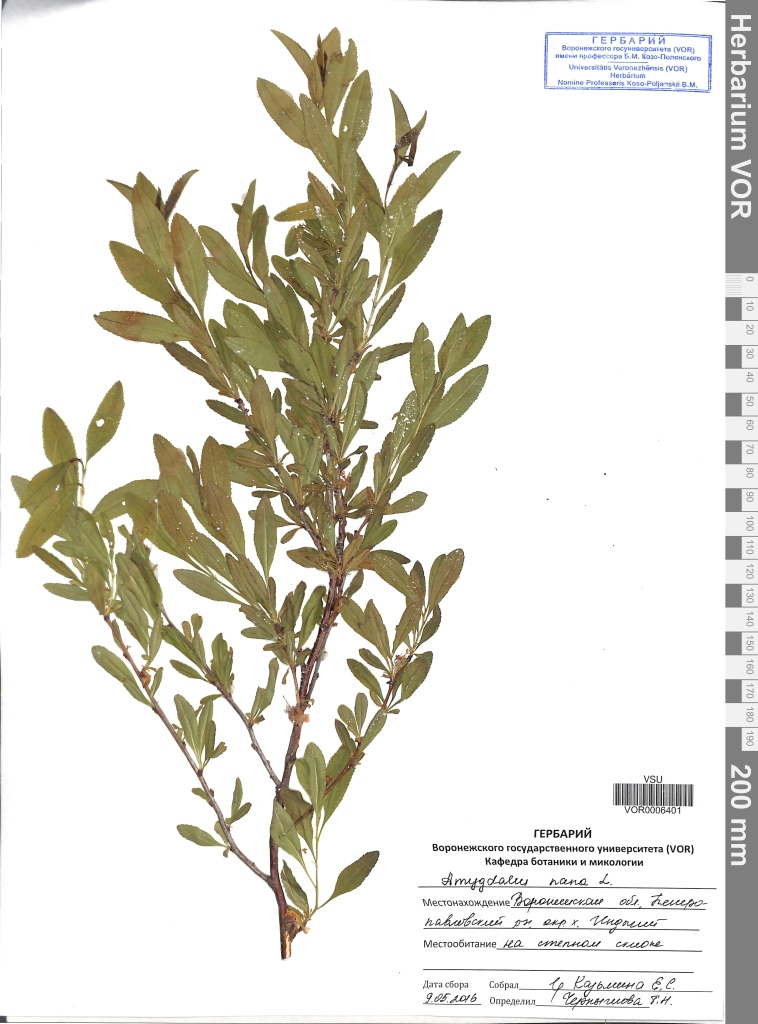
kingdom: Plantae
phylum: Tracheophyta
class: Magnoliopsida
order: Rosales
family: Rosaceae
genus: Prunus
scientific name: Prunus tenella
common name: Dwarf russian almond
